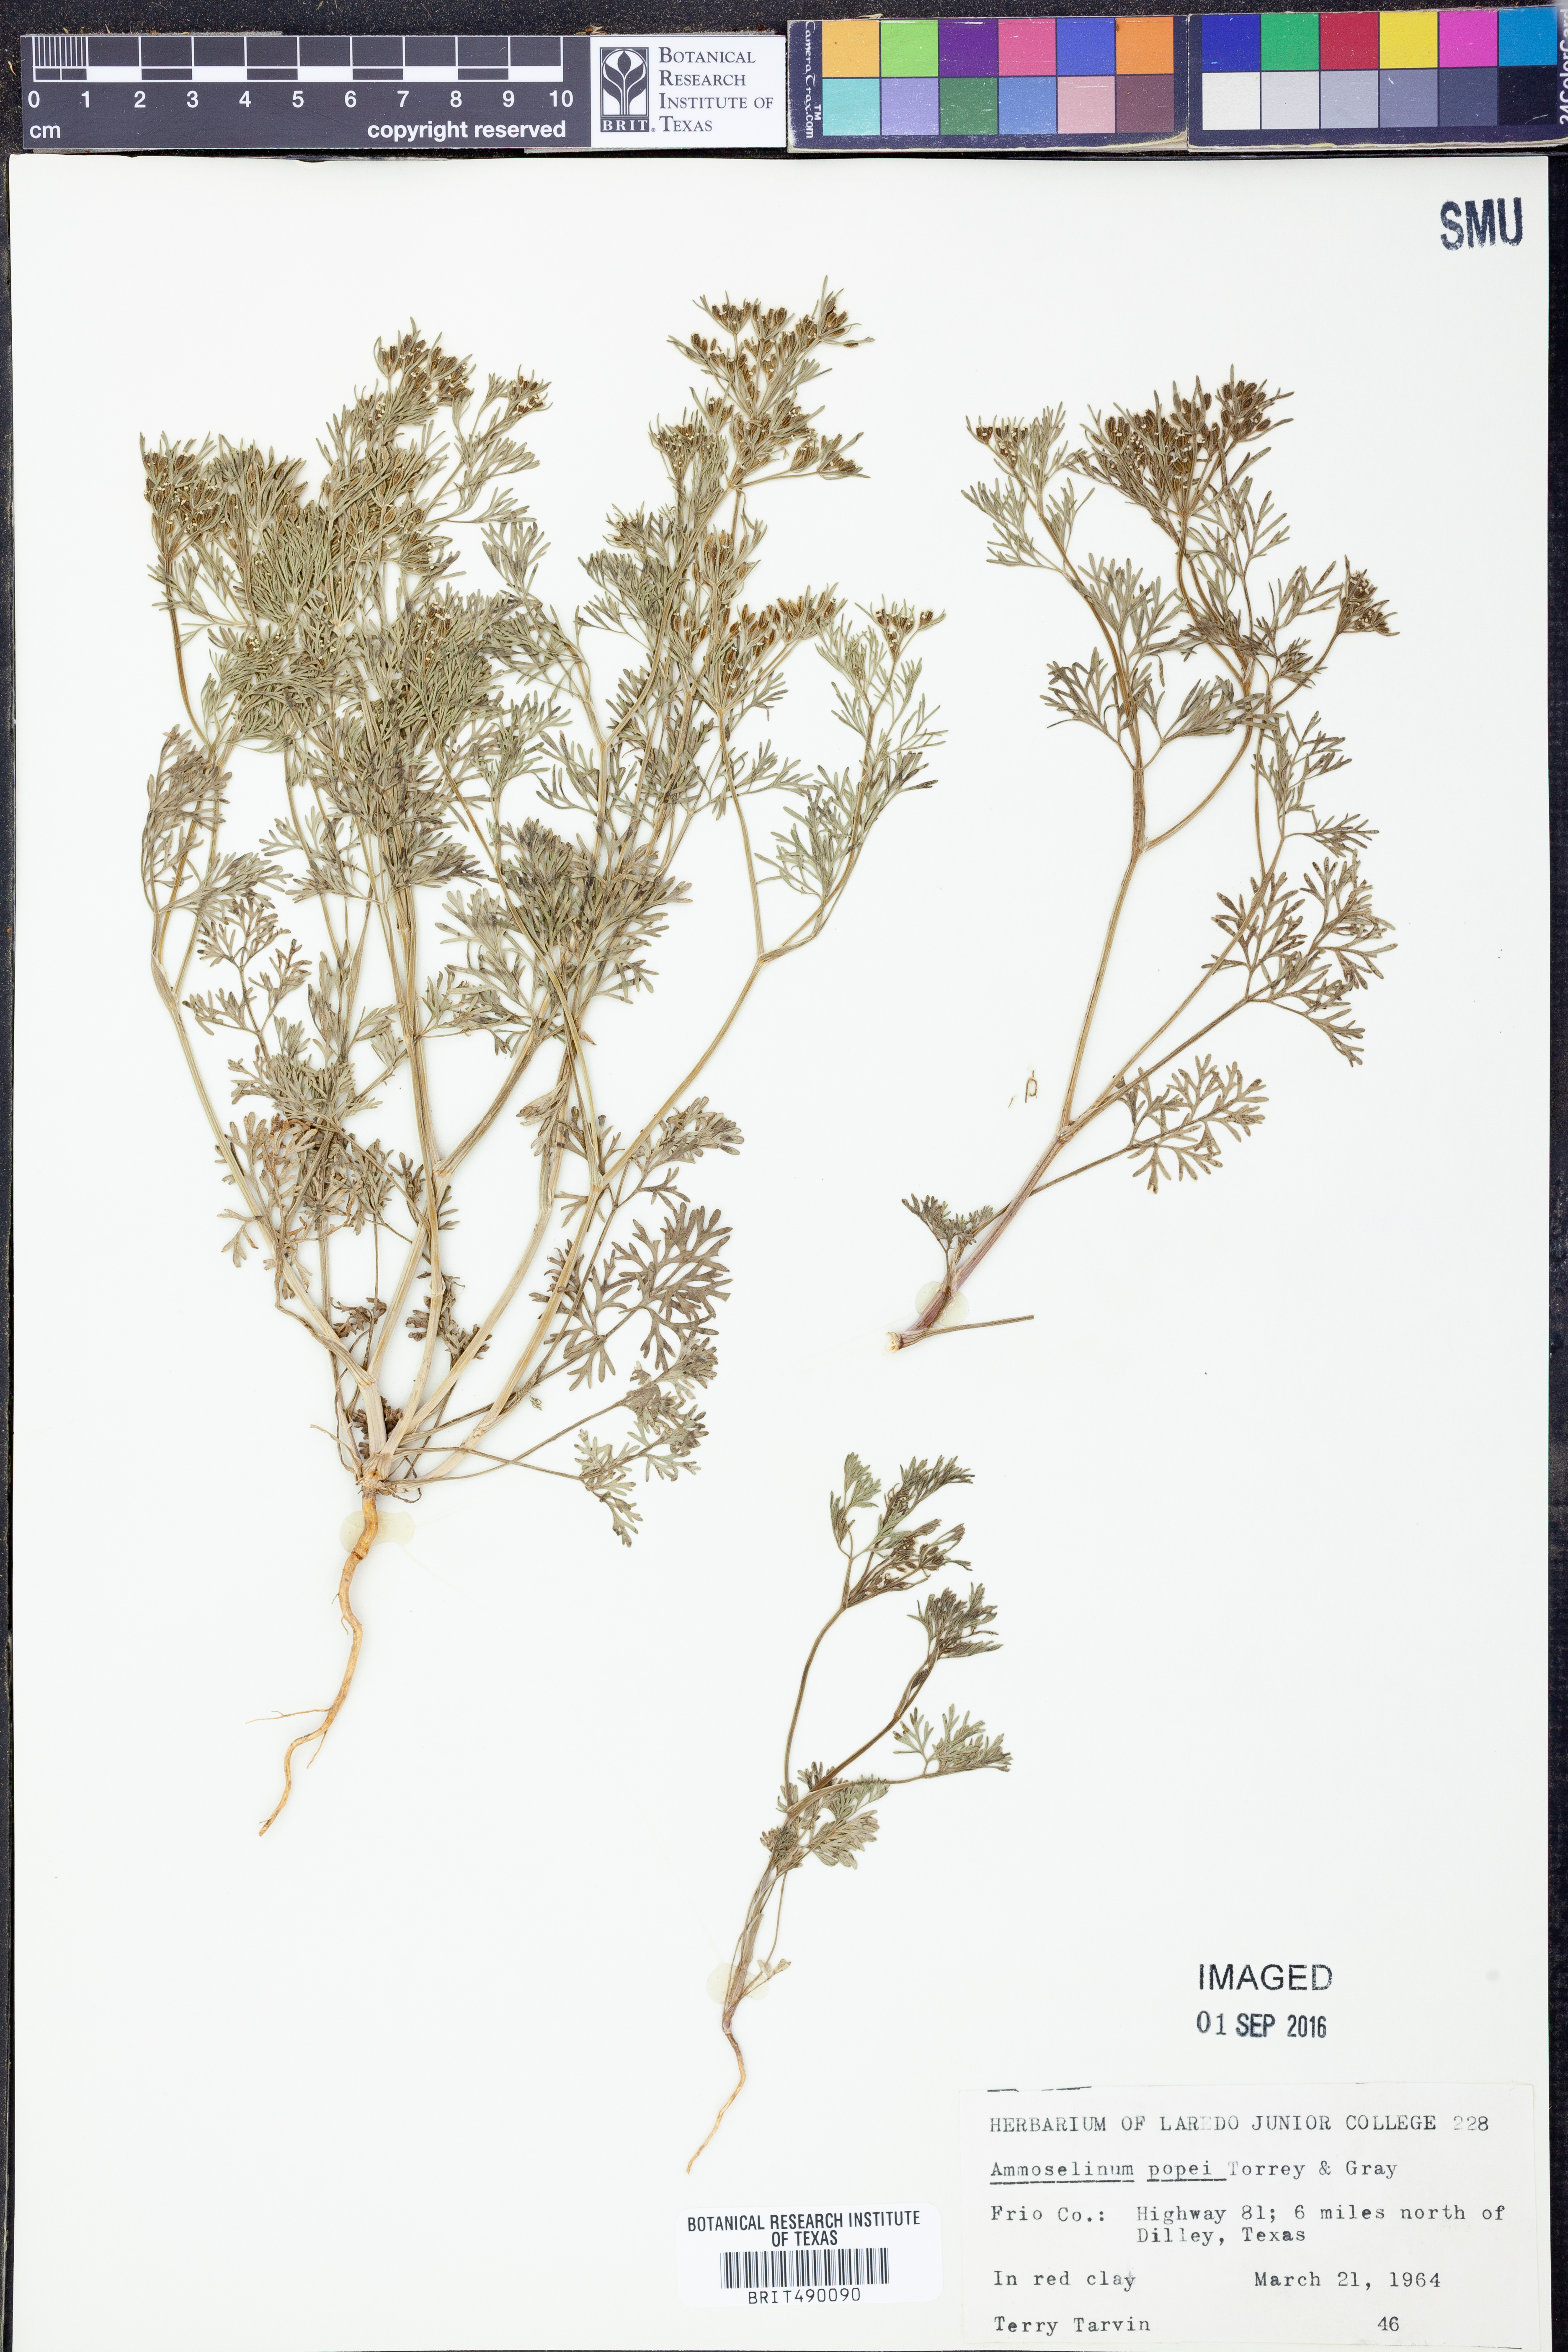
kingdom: Plantae
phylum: Tracheophyta
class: Magnoliopsida
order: Apiales
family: Apiaceae
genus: Ammoselinum
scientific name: Ammoselinum popei
